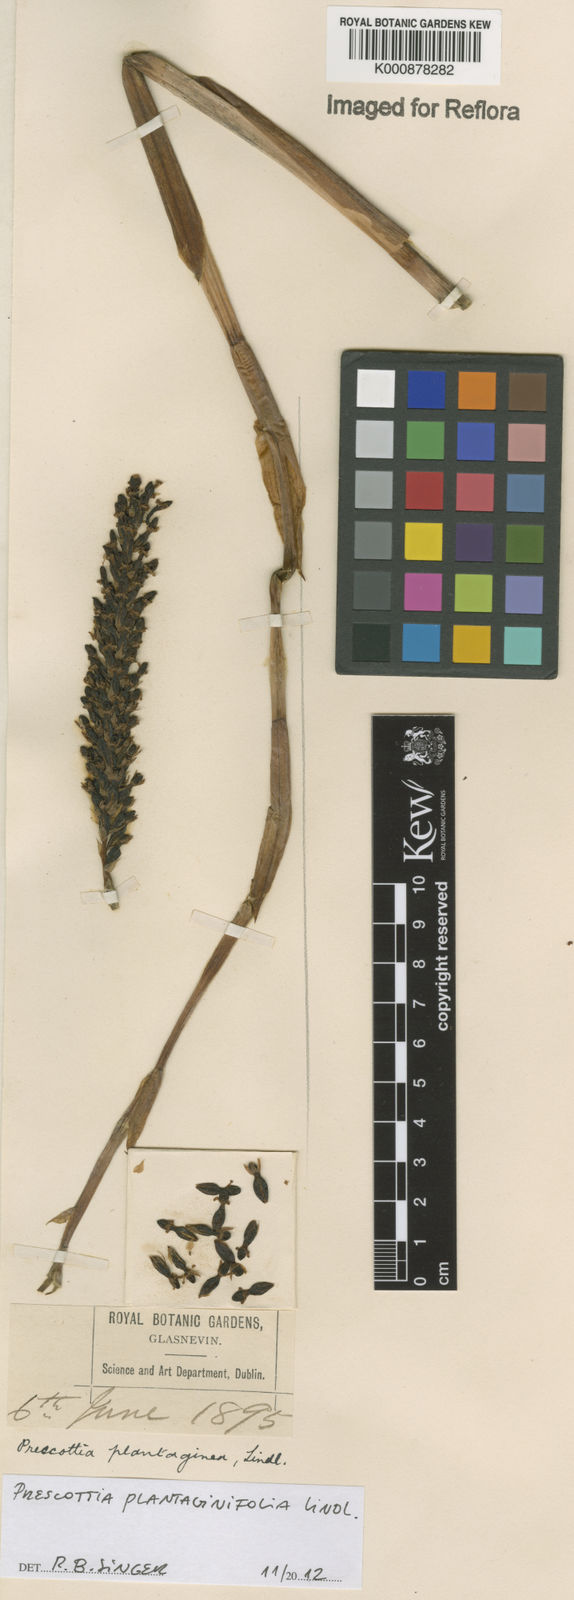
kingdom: Plantae
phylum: Tracheophyta
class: Liliopsida
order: Asparagales
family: Orchidaceae
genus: Prescottia
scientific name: Prescottia plantaginifolia
